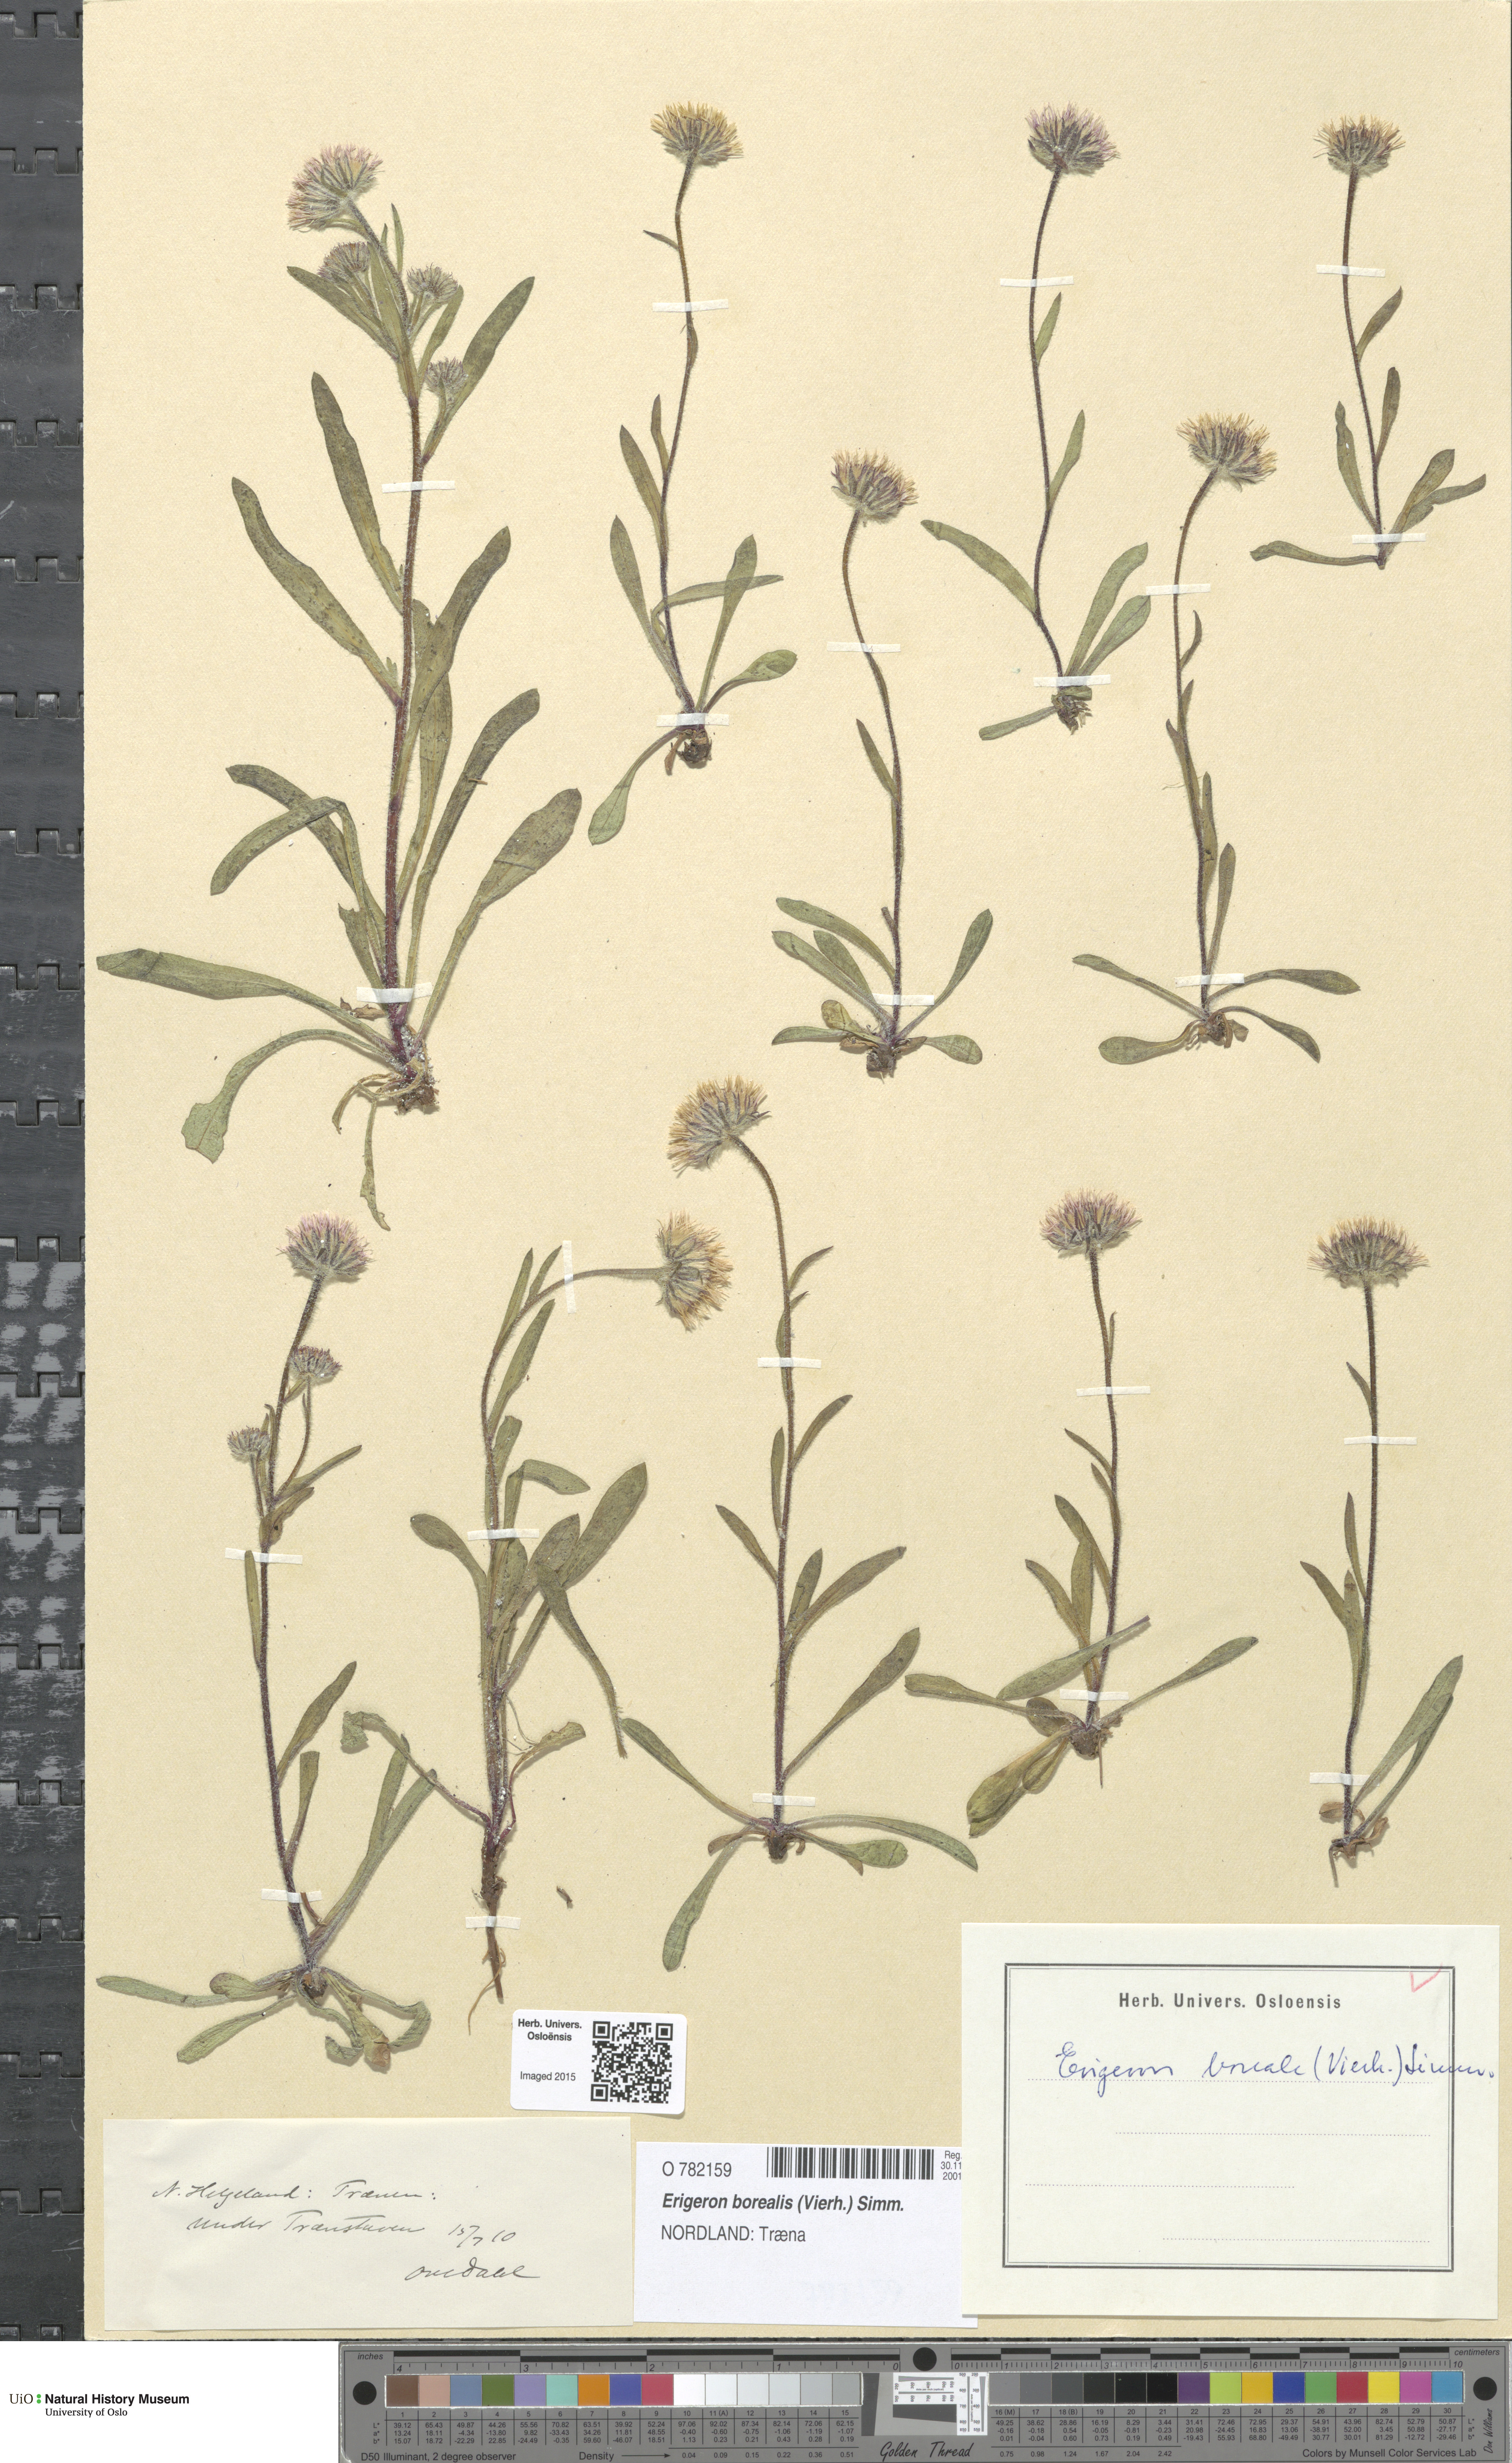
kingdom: Plantae
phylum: Tracheophyta
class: Magnoliopsida
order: Asterales
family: Asteraceae
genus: Erigeron
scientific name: Erigeron borealis
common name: Alpine fleabane
